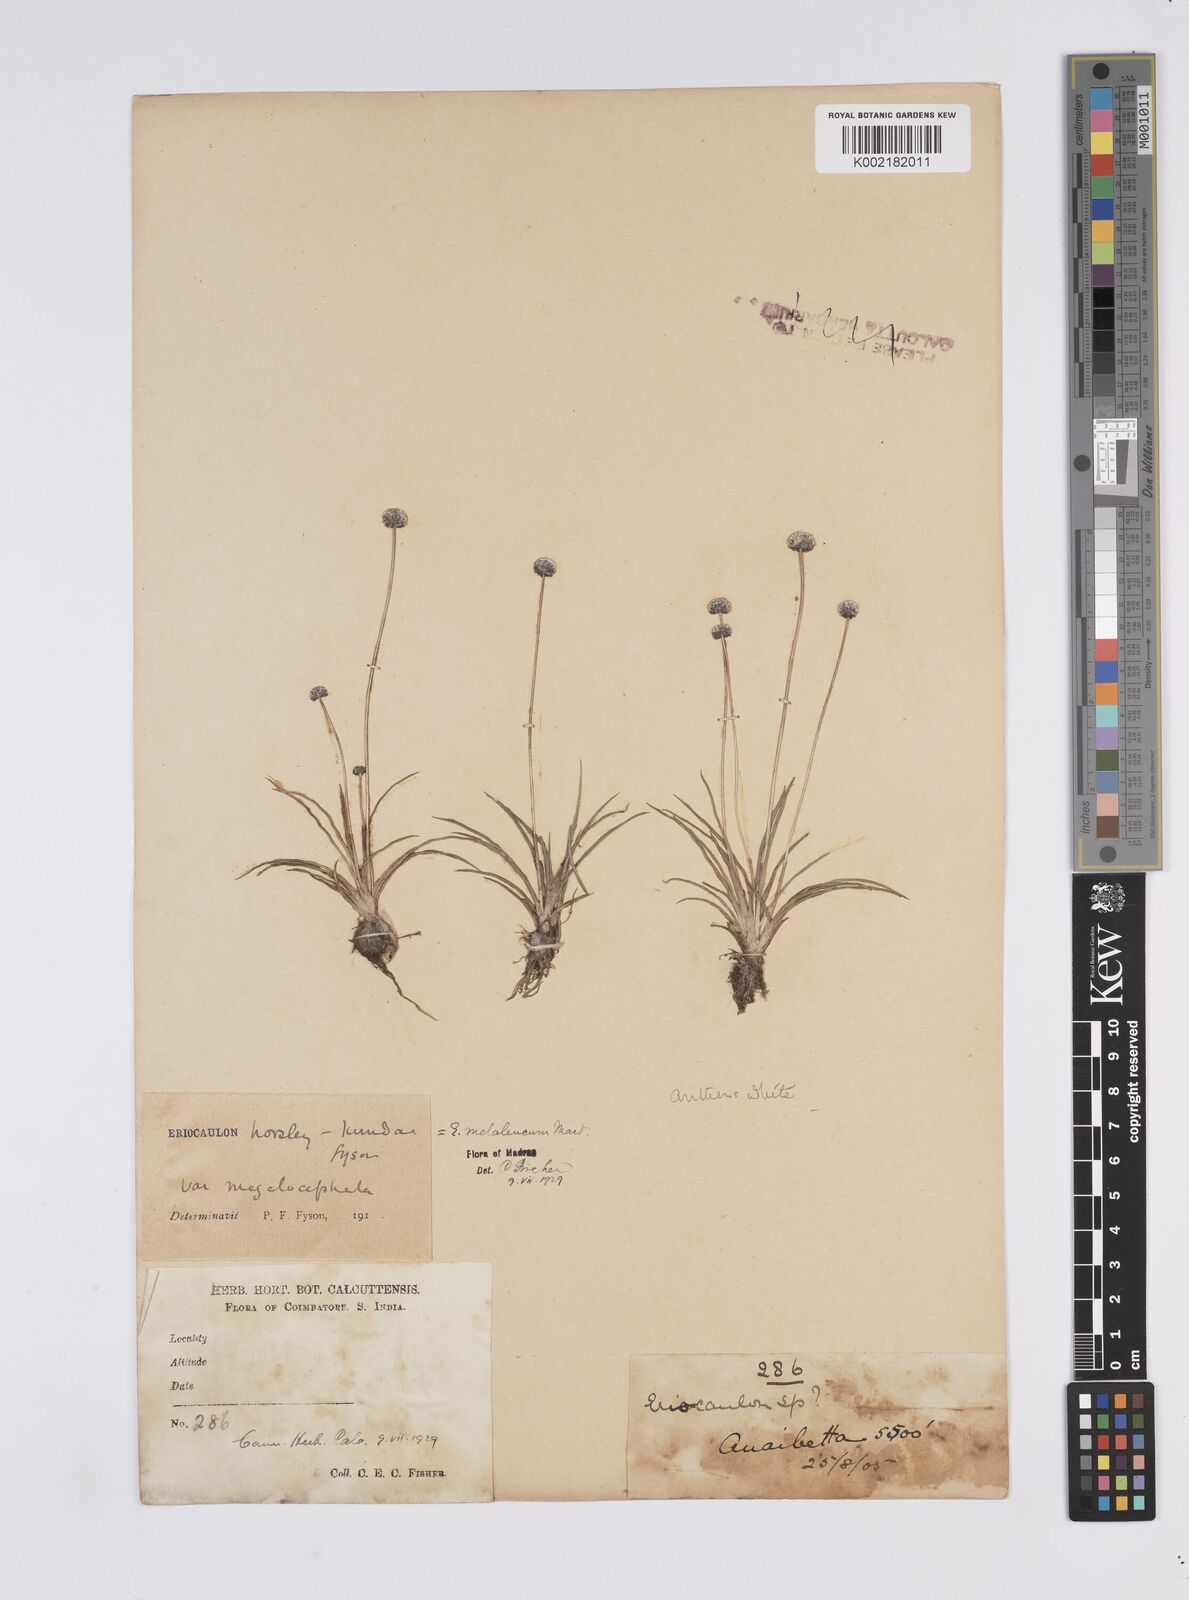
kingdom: Plantae
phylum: Tracheophyta
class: Liliopsida
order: Poales
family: Eriocaulaceae
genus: Eriocaulon
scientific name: Eriocaulon leucomelas
